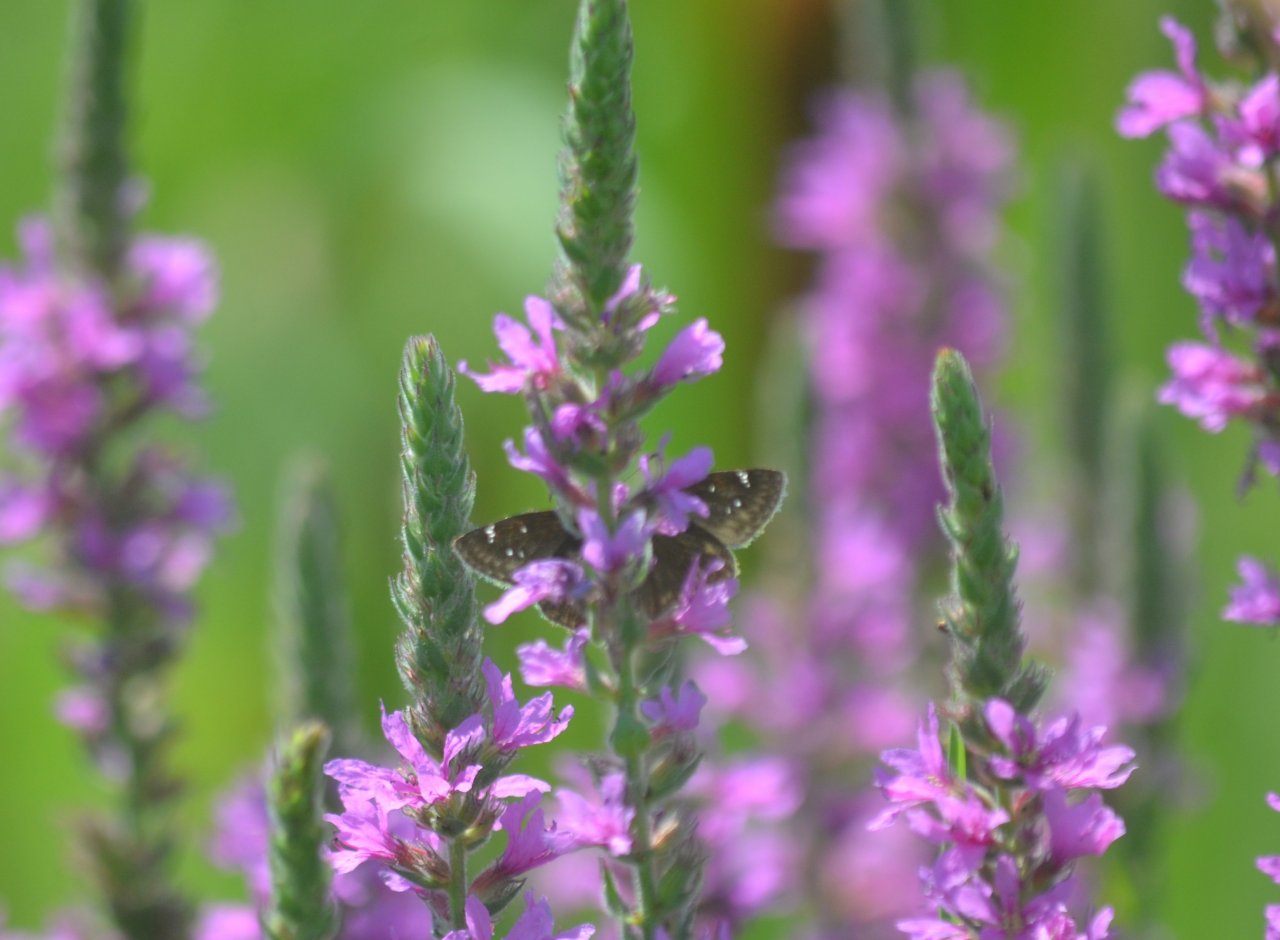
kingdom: Animalia
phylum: Arthropoda
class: Insecta
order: Lepidoptera
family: Hesperiidae
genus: Erynnis
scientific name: Erynnis
